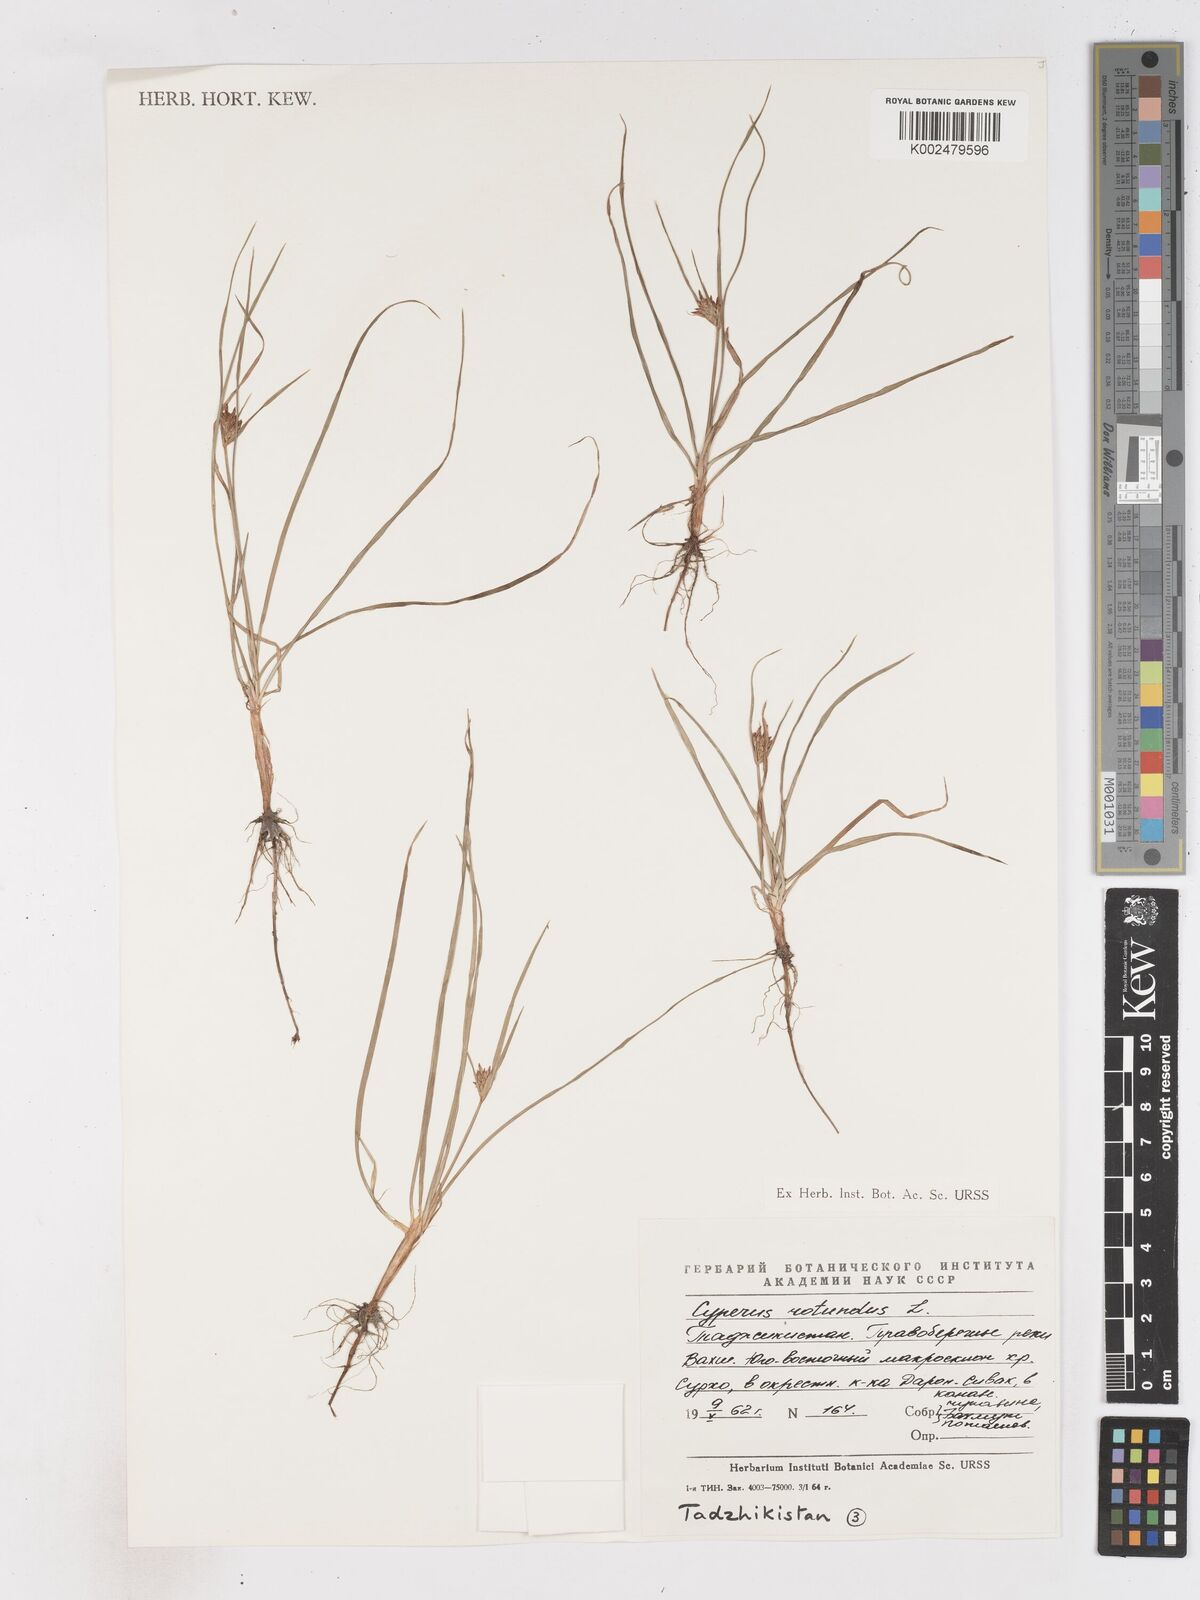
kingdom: Plantae
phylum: Tracheophyta
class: Liliopsida
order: Poales
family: Cyperaceae
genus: Cyperus
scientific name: Cyperus rotundus
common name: Nutgrass
